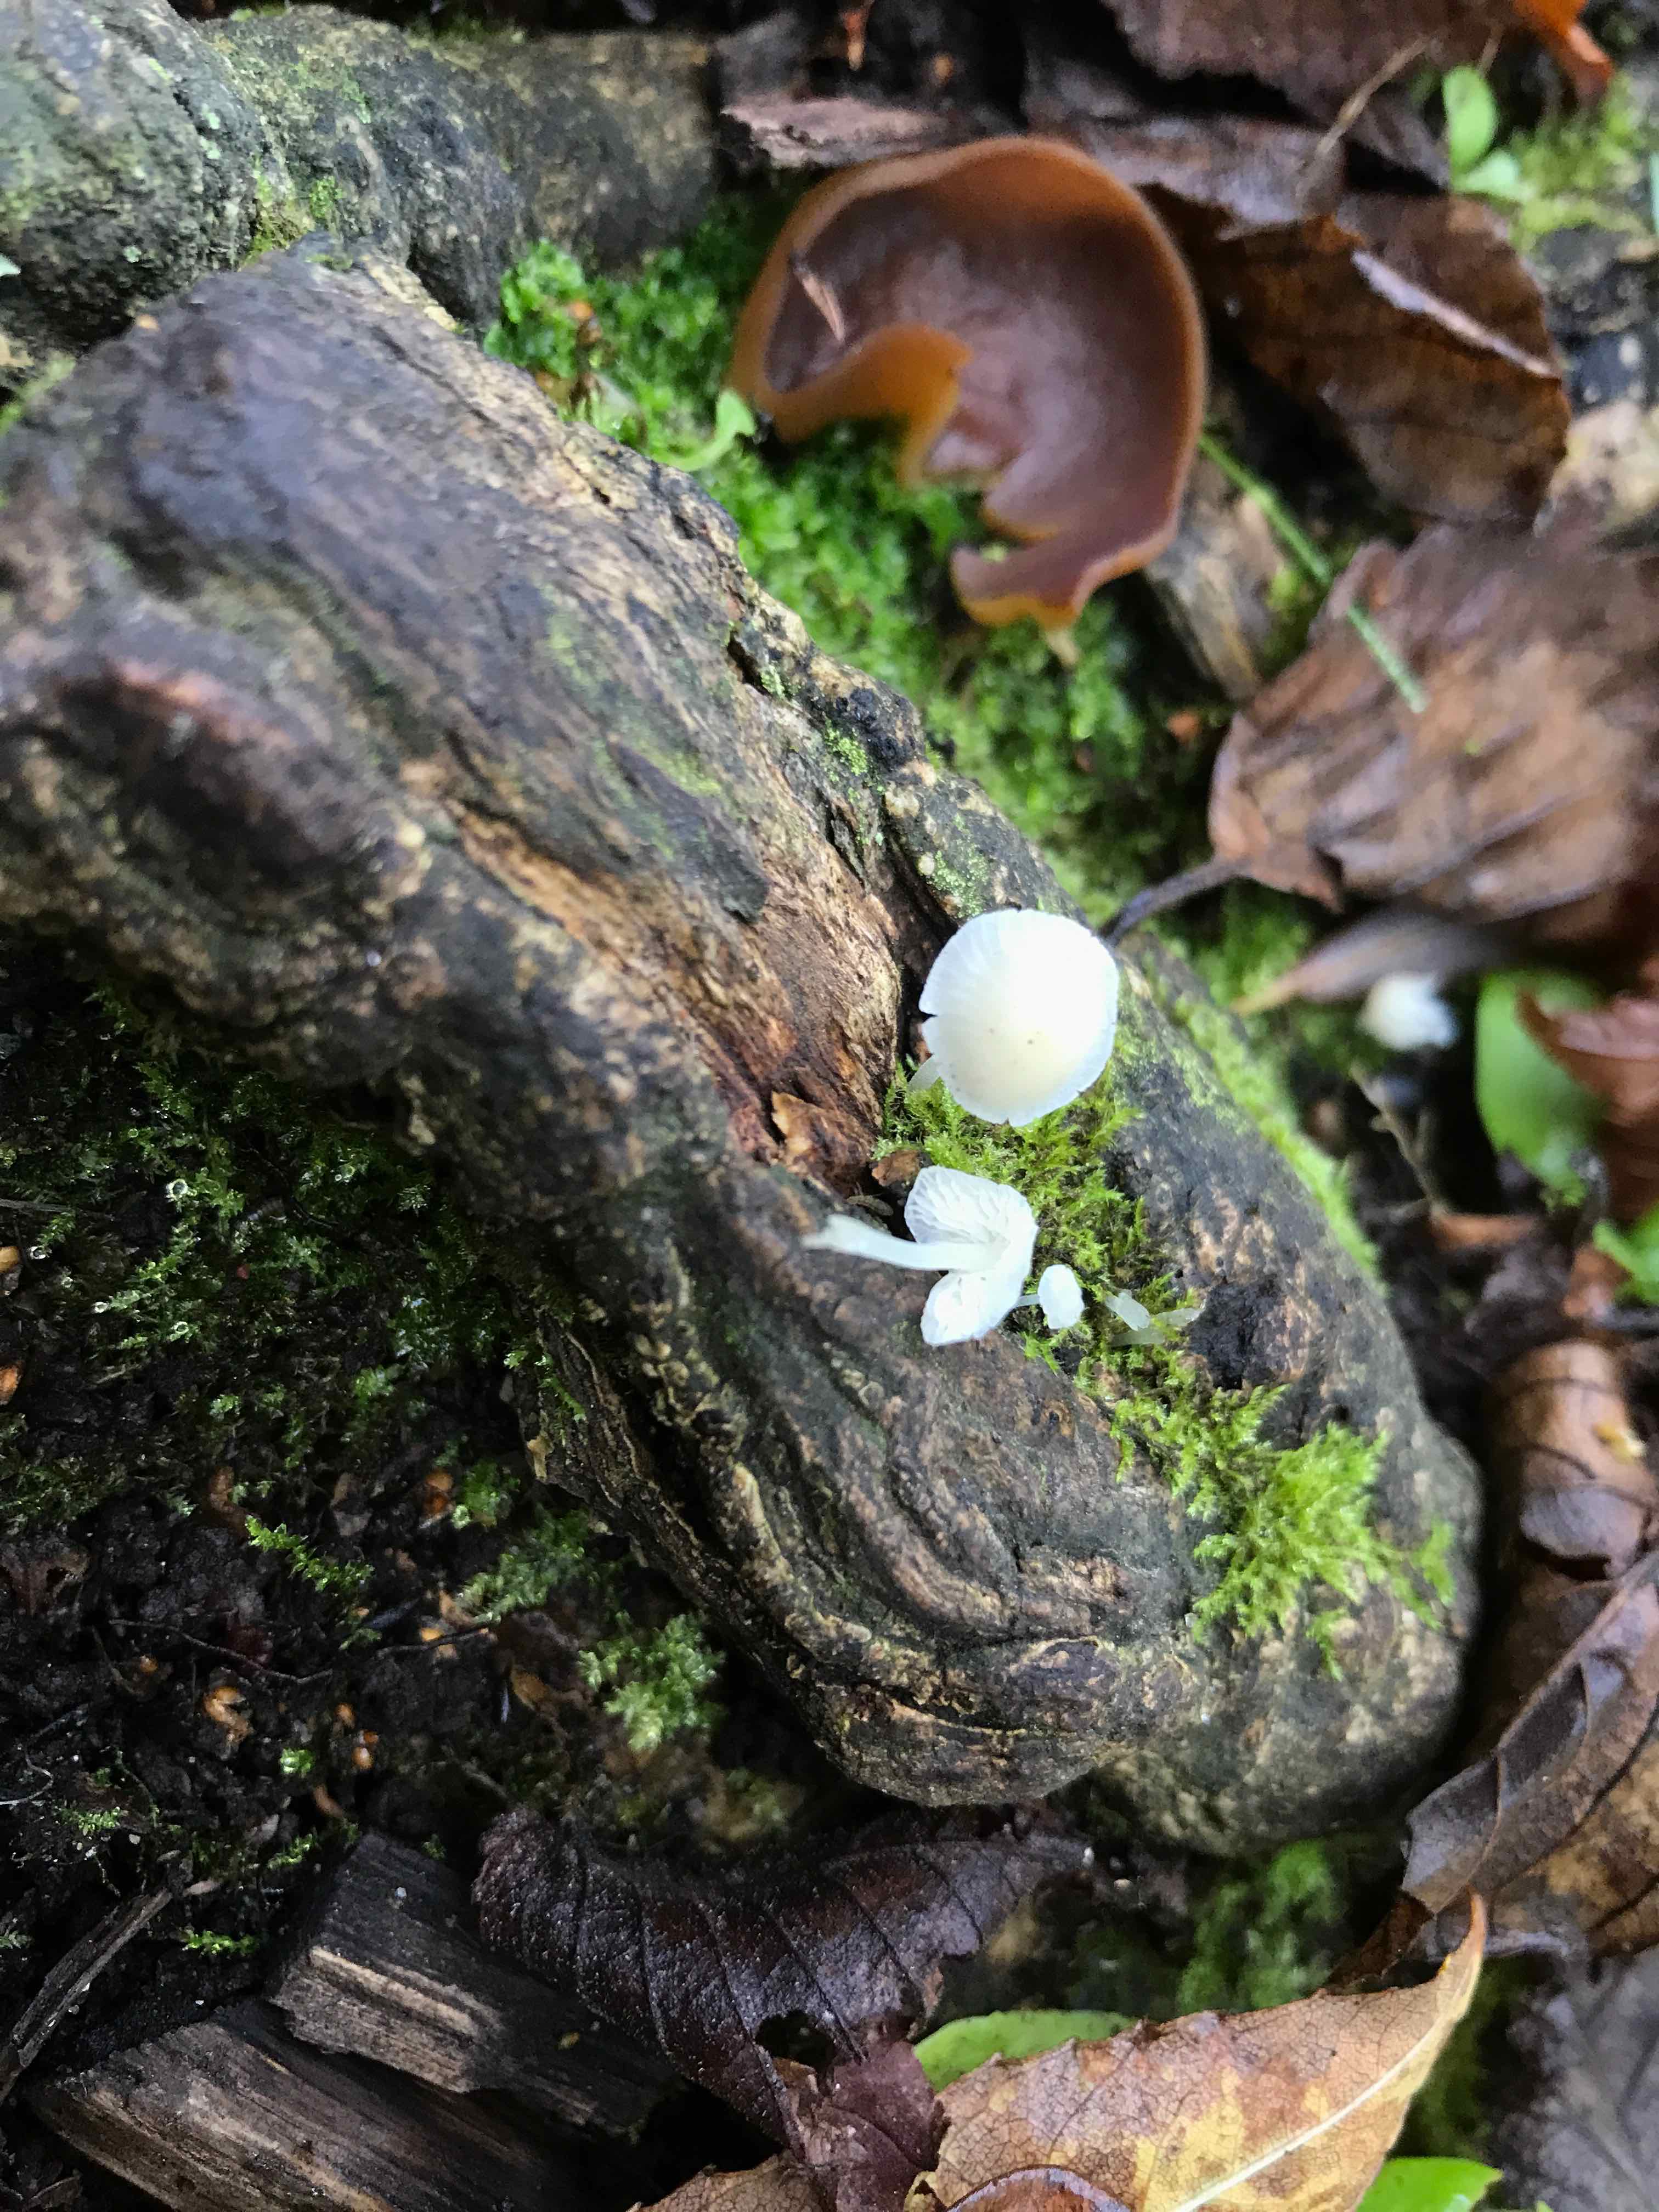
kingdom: Fungi
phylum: Basidiomycota
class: Agaricomycetes
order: Agaricales
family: Porotheleaceae
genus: Phloeomana
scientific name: Phloeomana minutula
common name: bleg huesvamp
